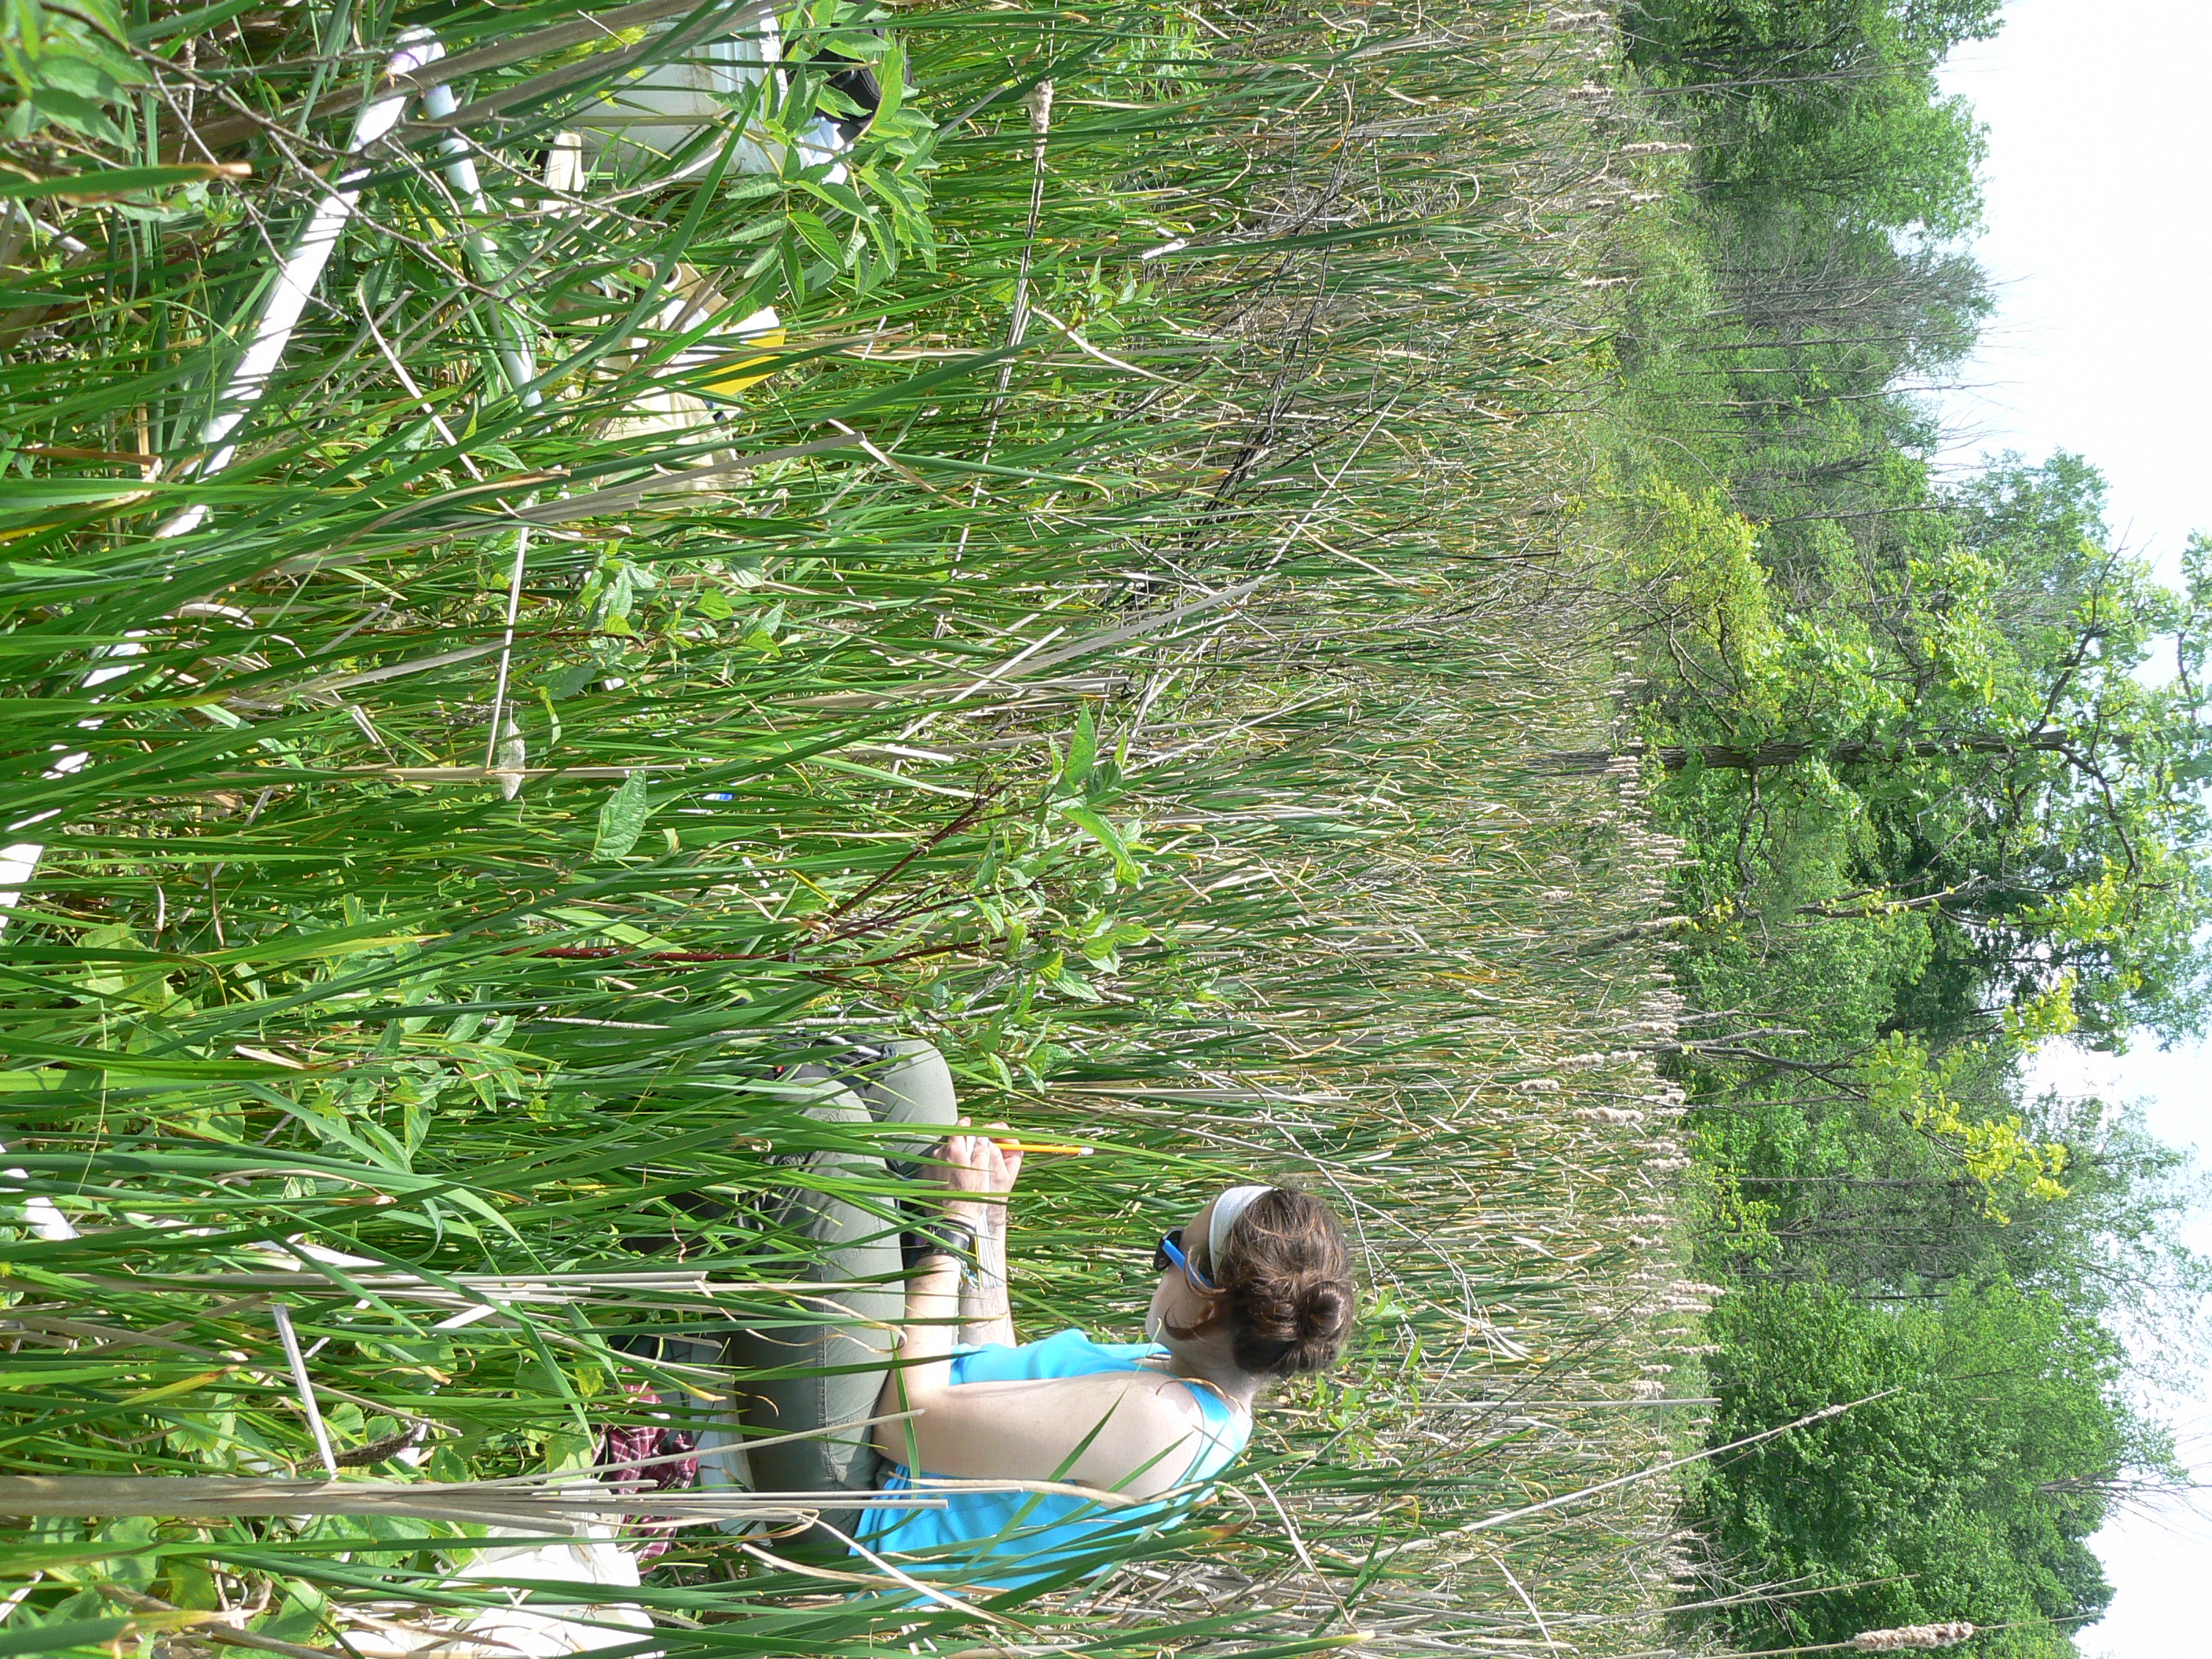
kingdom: Plantae
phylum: Tracheophyta
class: Magnoliopsida
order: Myrtales
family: Lythraceae
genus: Lythrum
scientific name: Lythrum salicaria
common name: Purple loosestrife
